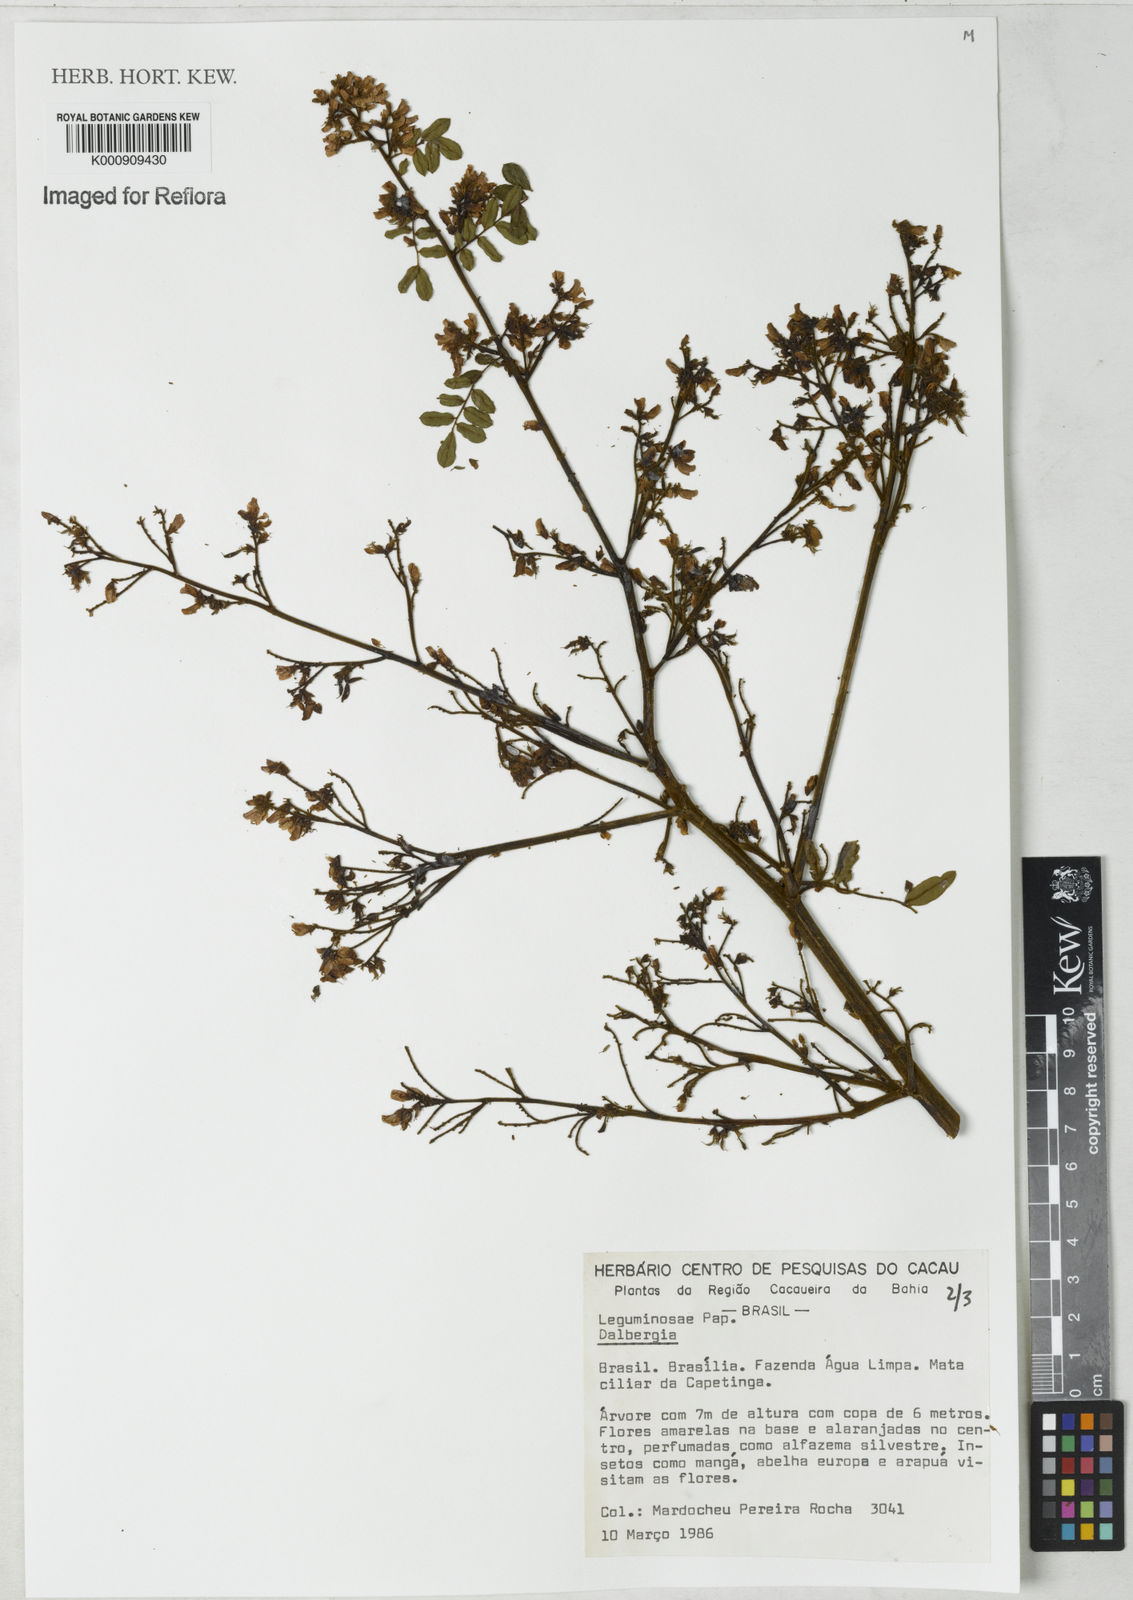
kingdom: Plantae
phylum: Tracheophyta
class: Magnoliopsida
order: Fabales
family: Fabaceae
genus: Dalbergia
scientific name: Dalbergia
